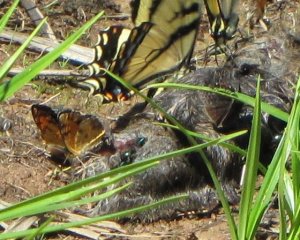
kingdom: Animalia
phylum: Arthropoda
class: Insecta
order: Lepidoptera
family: Nymphalidae
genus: Phyciodes
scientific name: Phyciodes tharos
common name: Northern Crescent
